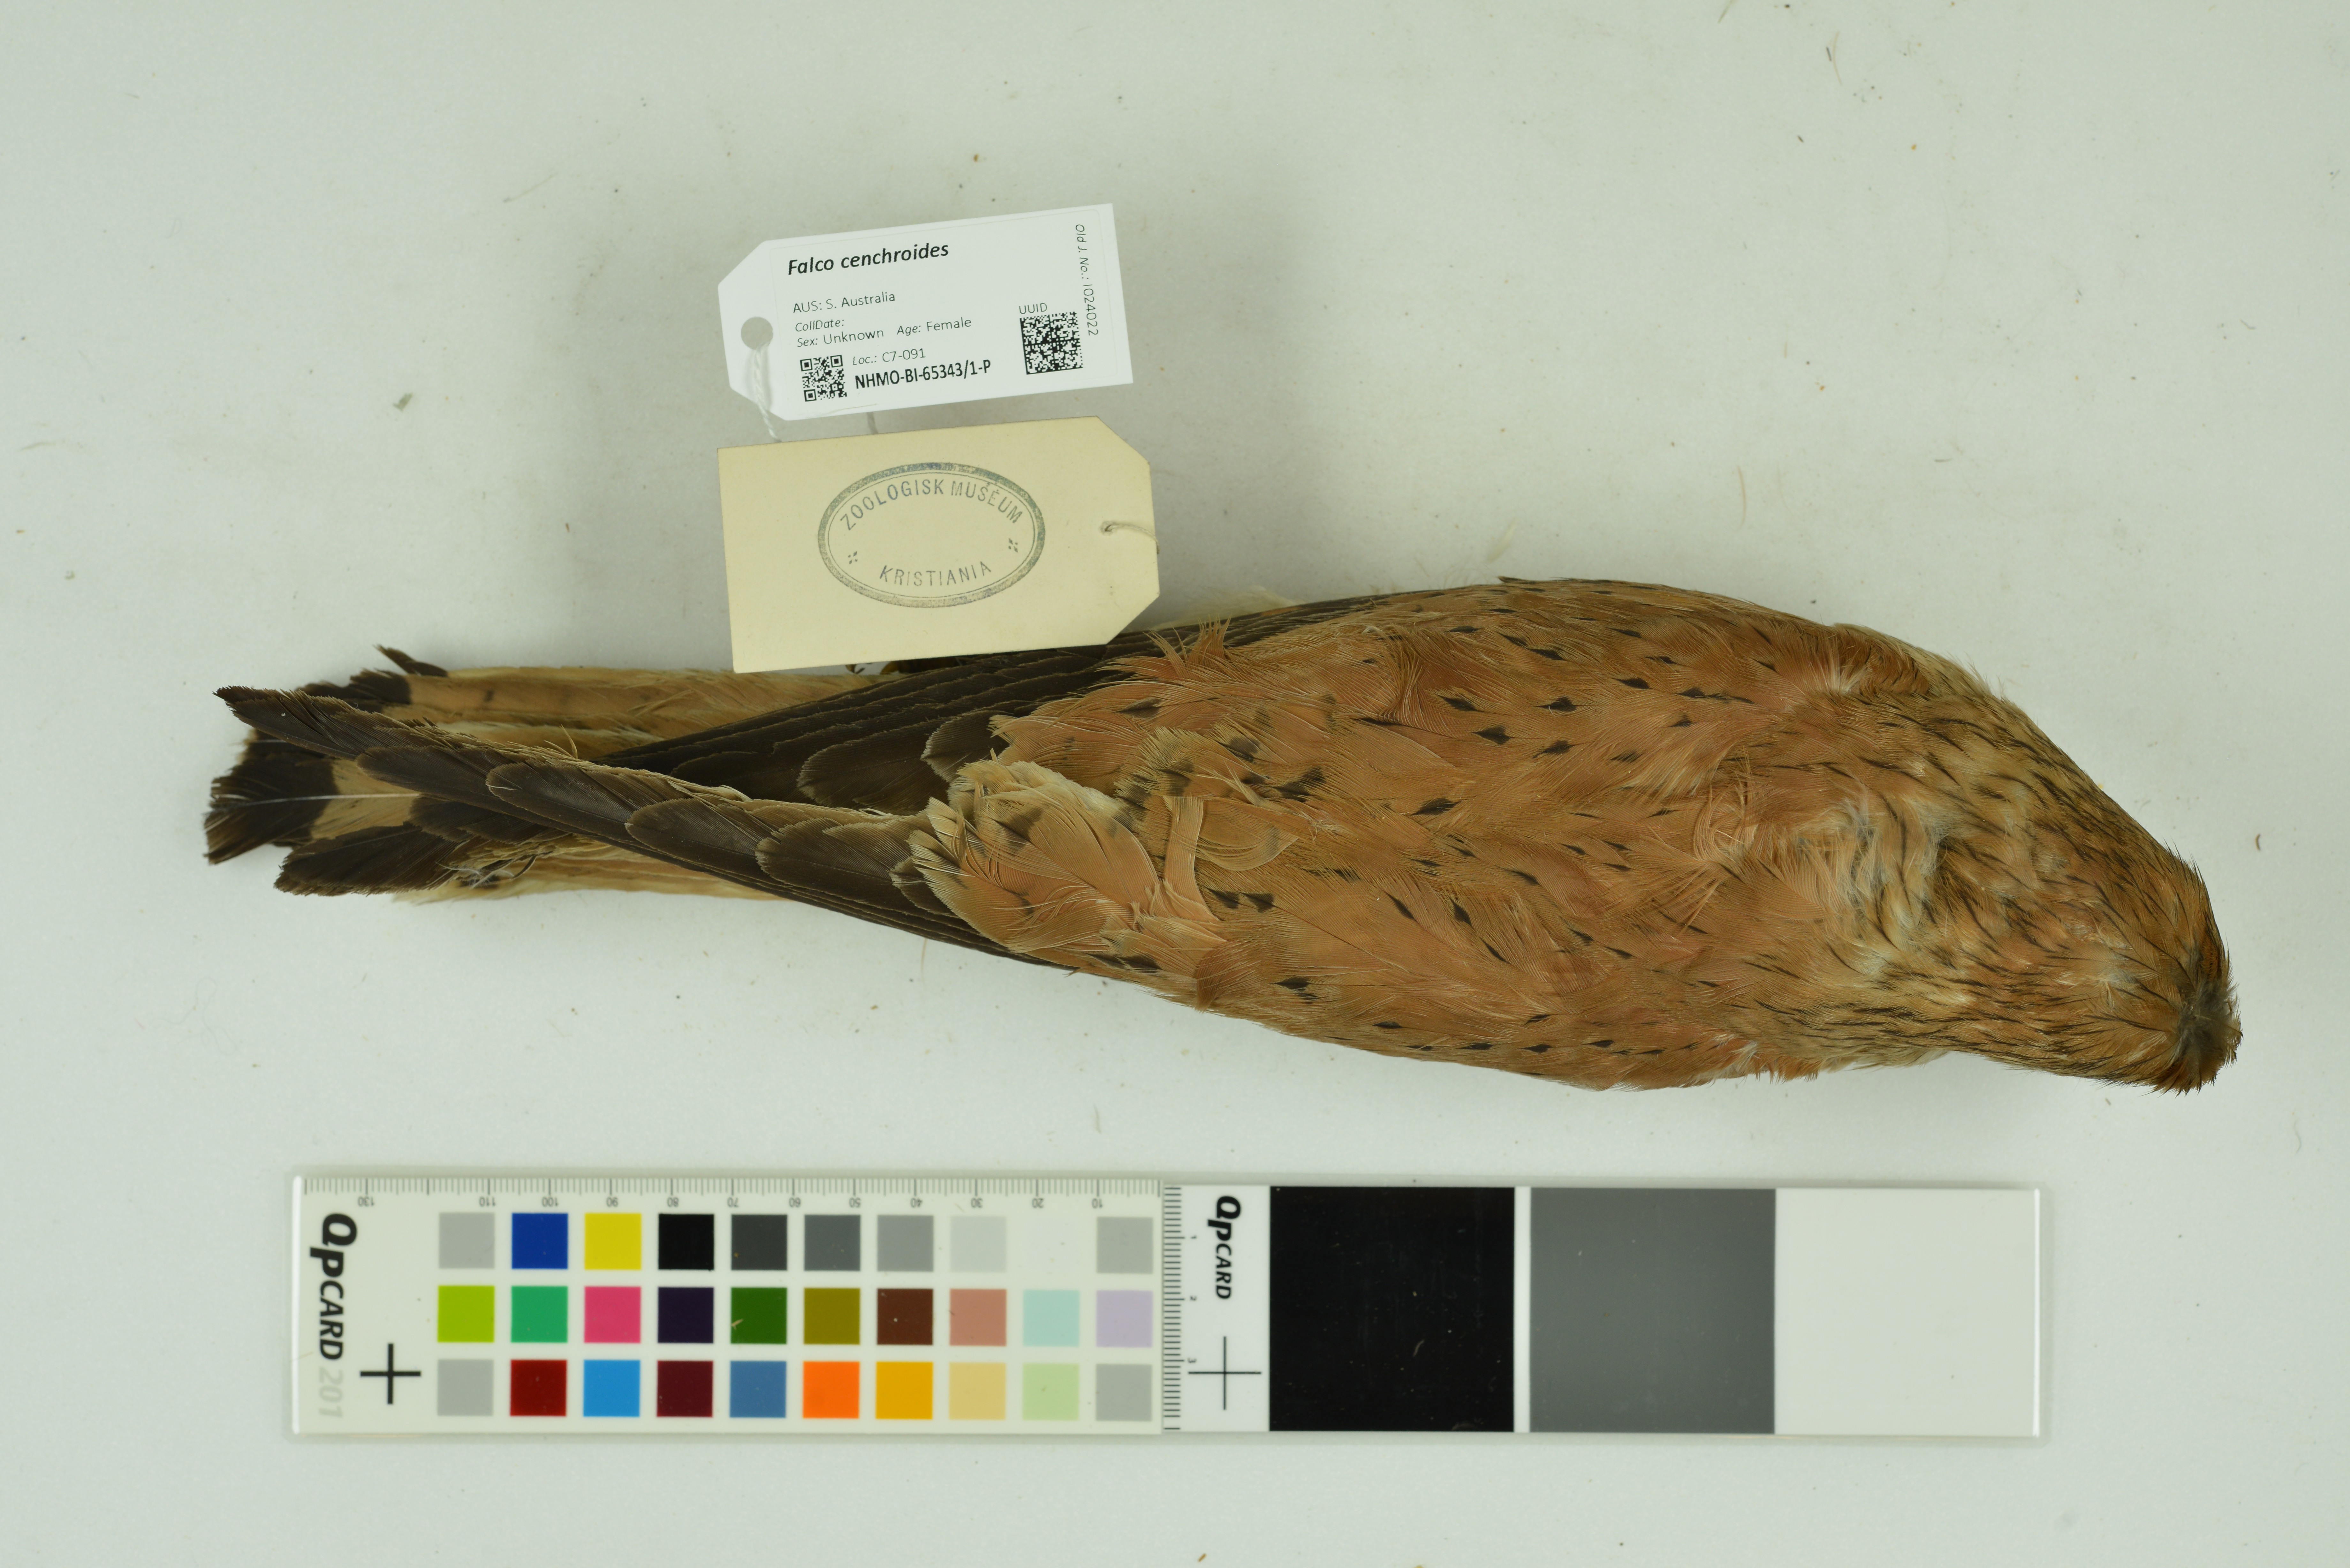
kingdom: Animalia
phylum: Chordata
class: Aves
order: Falconiformes
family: Falconidae
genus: Falco
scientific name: Falco cenchroides
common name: Nankeen kestrel
